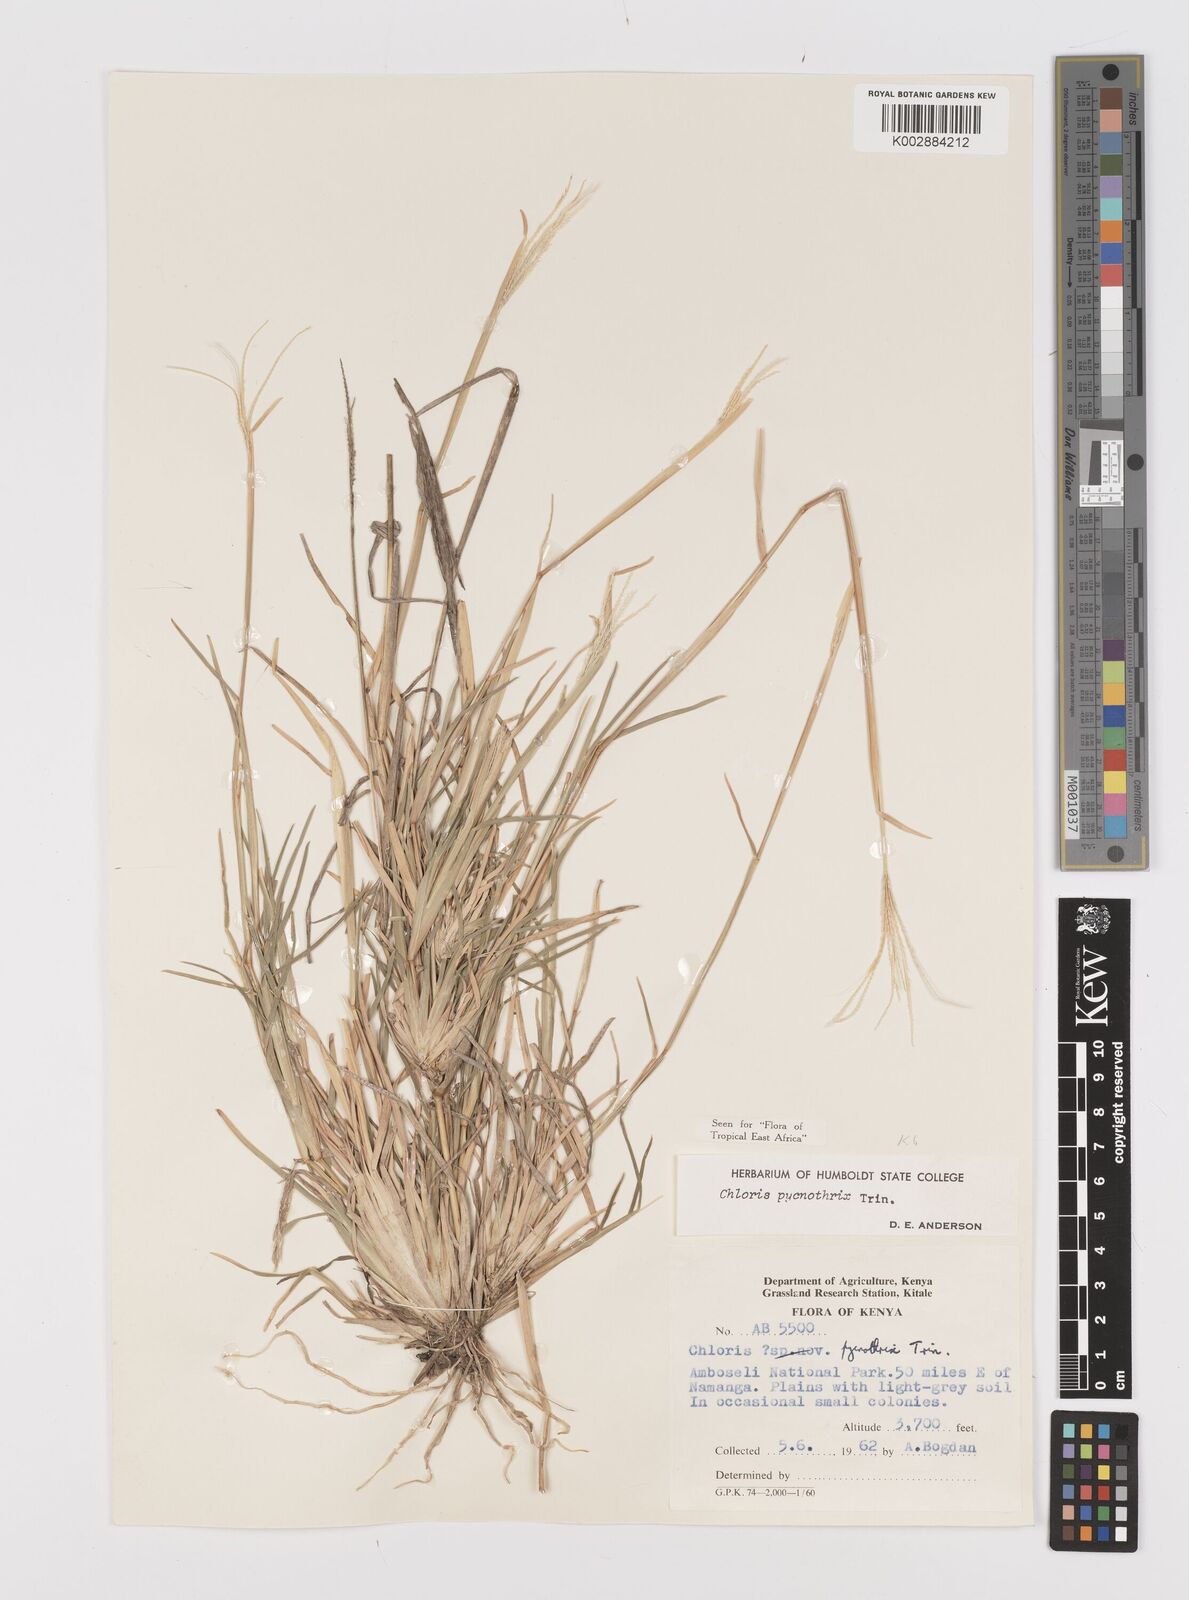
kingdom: Plantae
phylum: Tracheophyta
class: Liliopsida
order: Poales
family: Poaceae
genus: Chloris
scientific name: Chloris pycnothrix
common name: Spiderweb chloris
